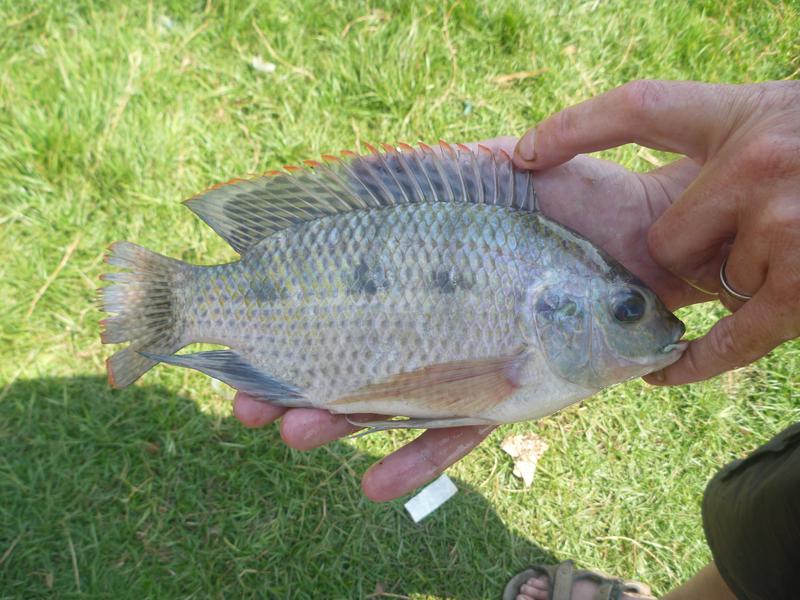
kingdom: Animalia
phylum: Chordata
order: Perciformes
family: Cichlidae
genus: Oreochromis
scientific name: Oreochromis upembae
